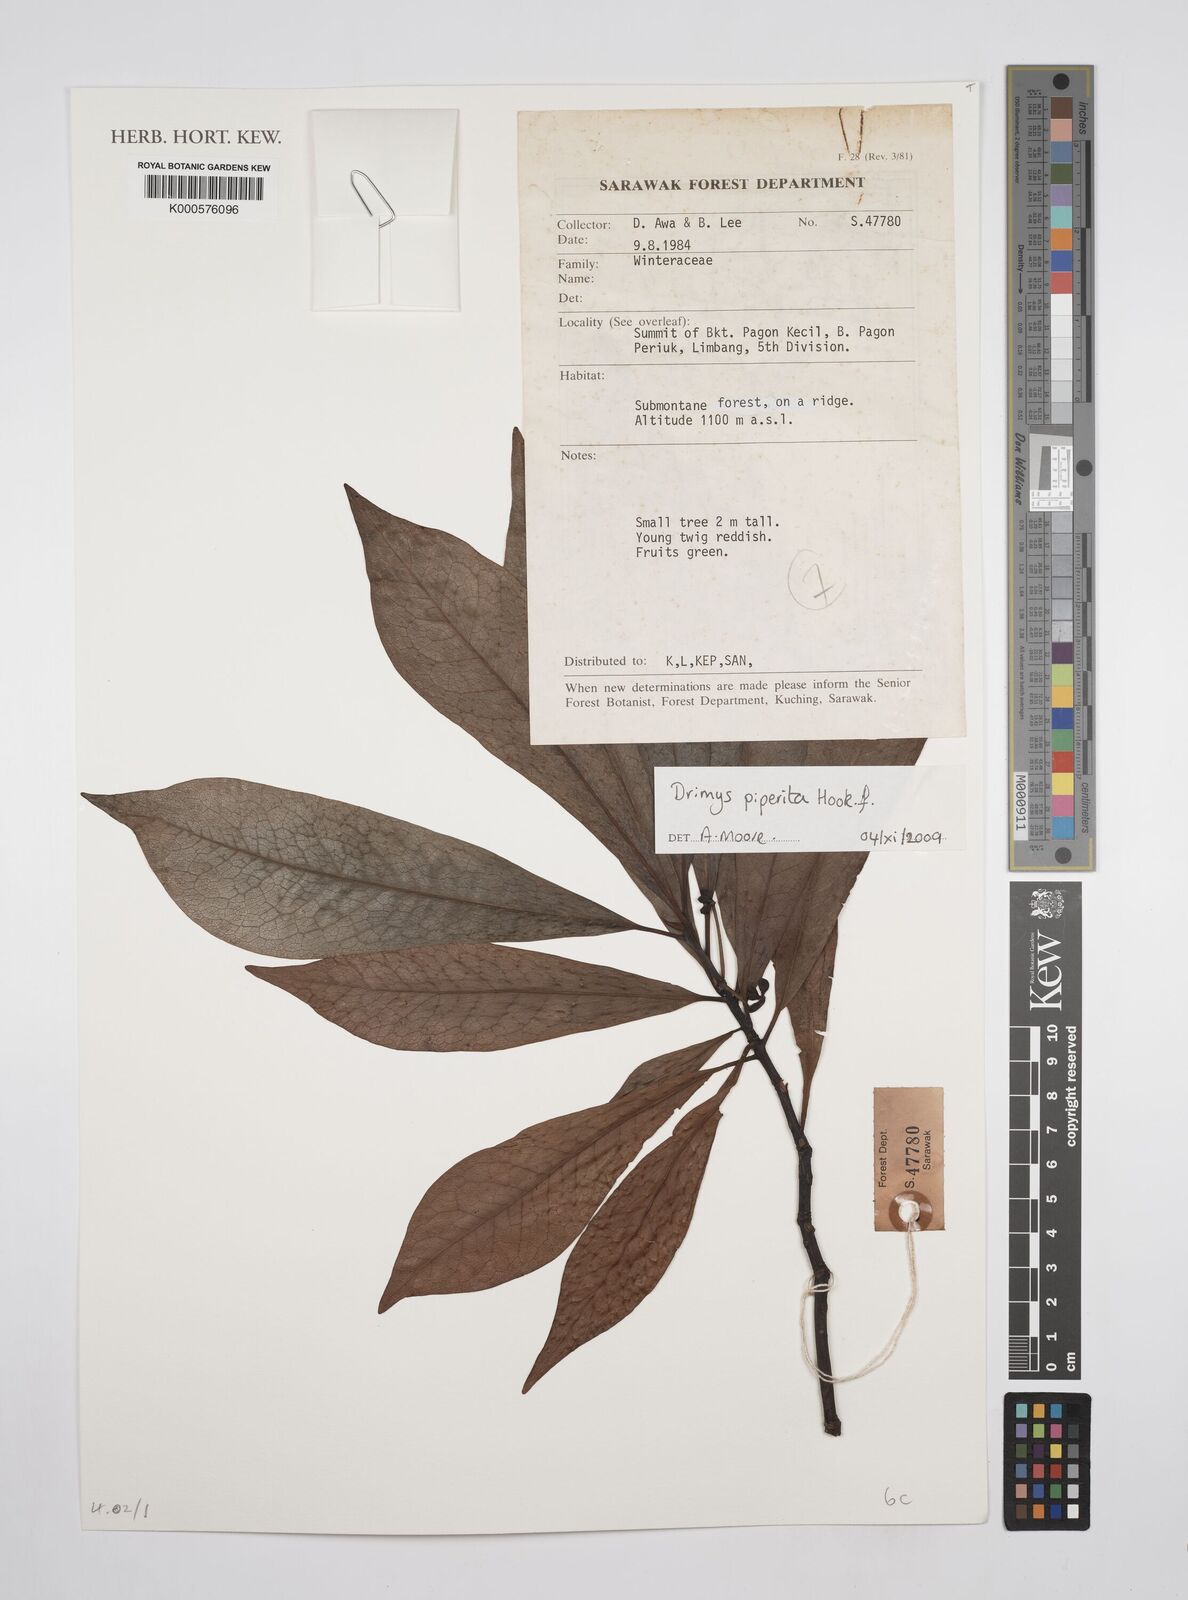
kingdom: Plantae
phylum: Tracheophyta
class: Magnoliopsida
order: Canellales
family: Winteraceae
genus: Drimys
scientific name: Drimys piperita
